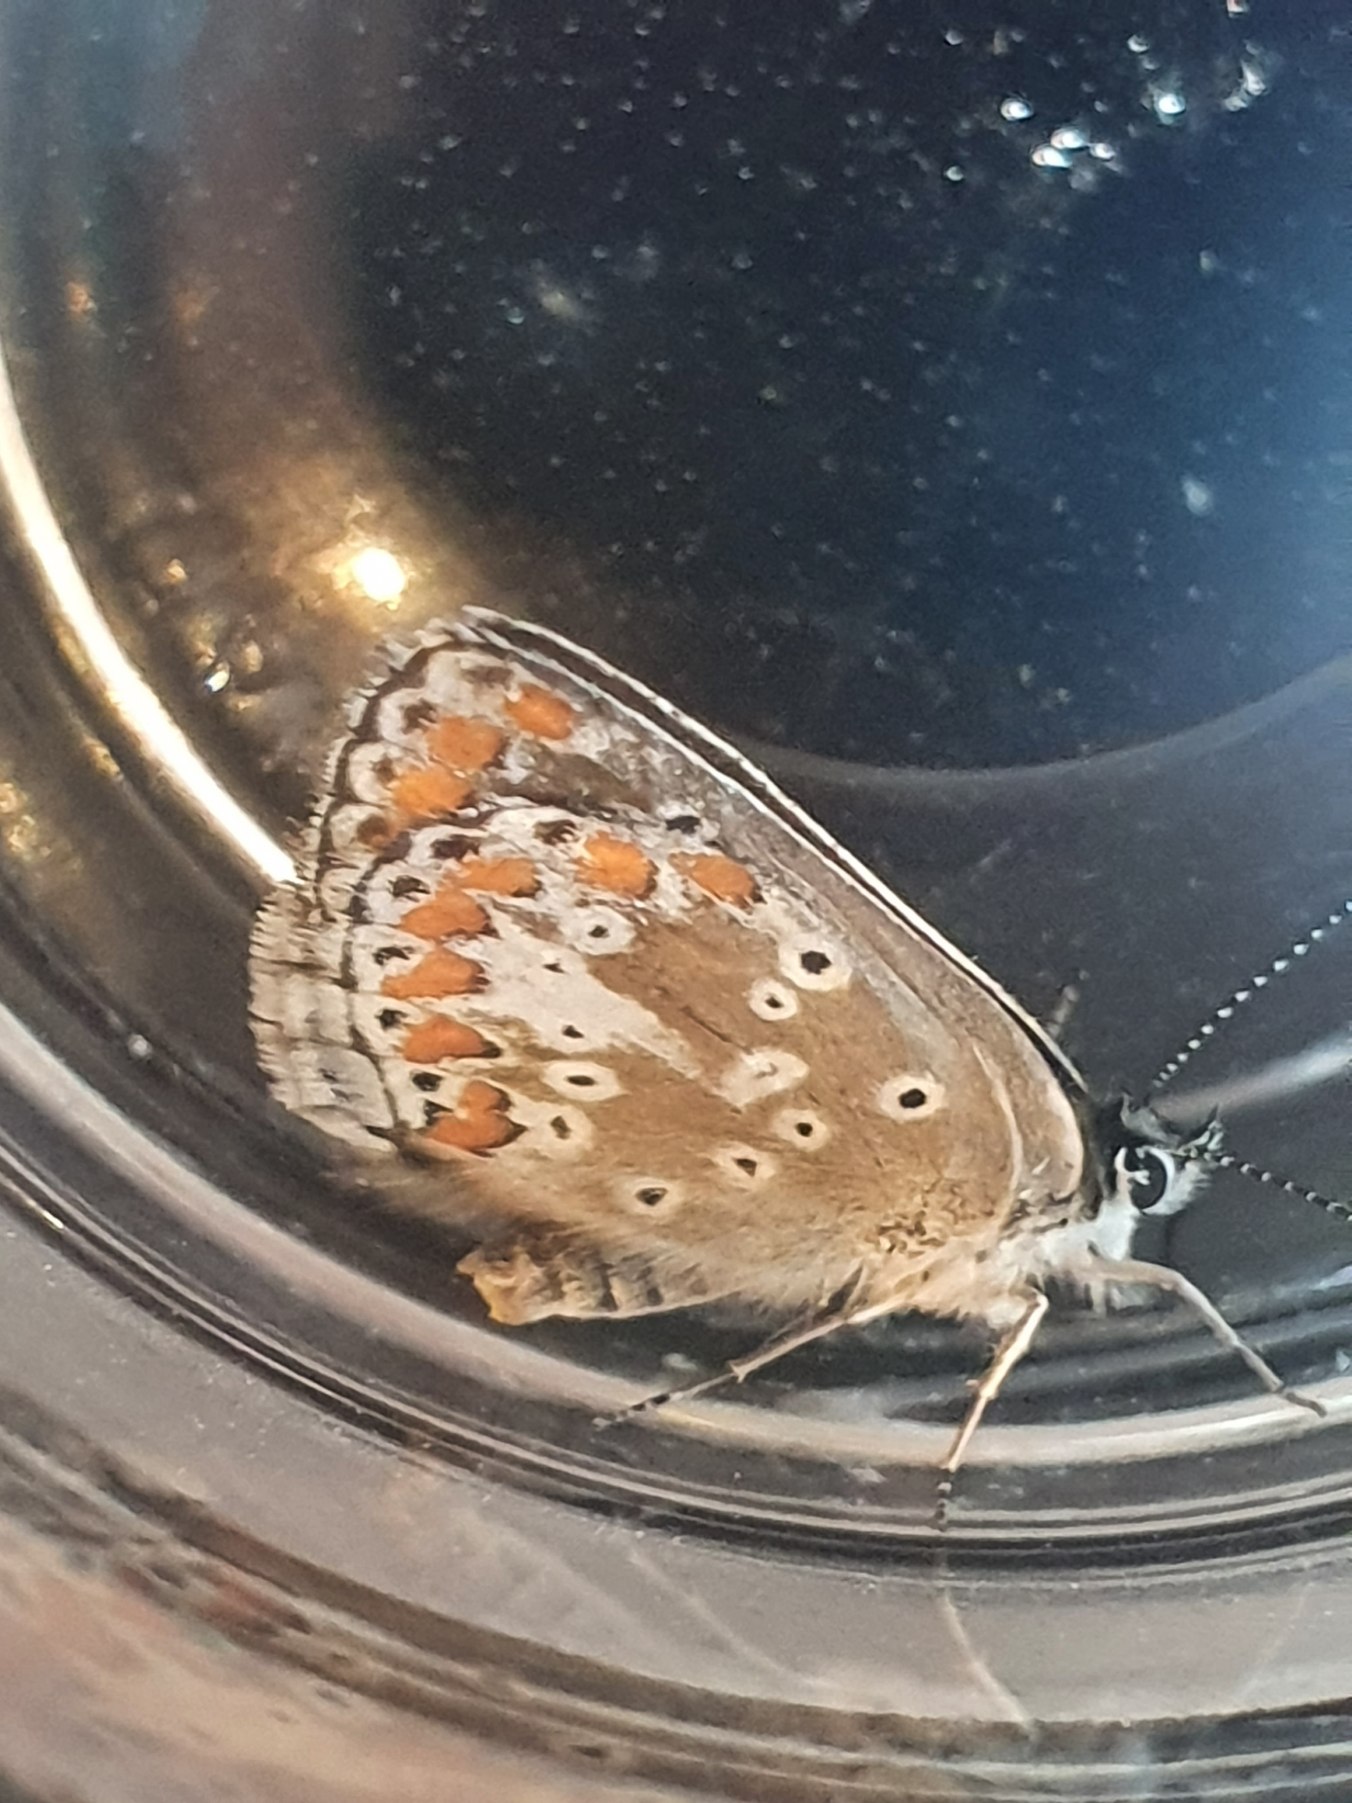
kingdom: Animalia
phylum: Arthropoda
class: Insecta
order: Lepidoptera
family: Lycaenidae
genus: Aricia
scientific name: Aricia agestis
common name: Rødplettet blåfugl
